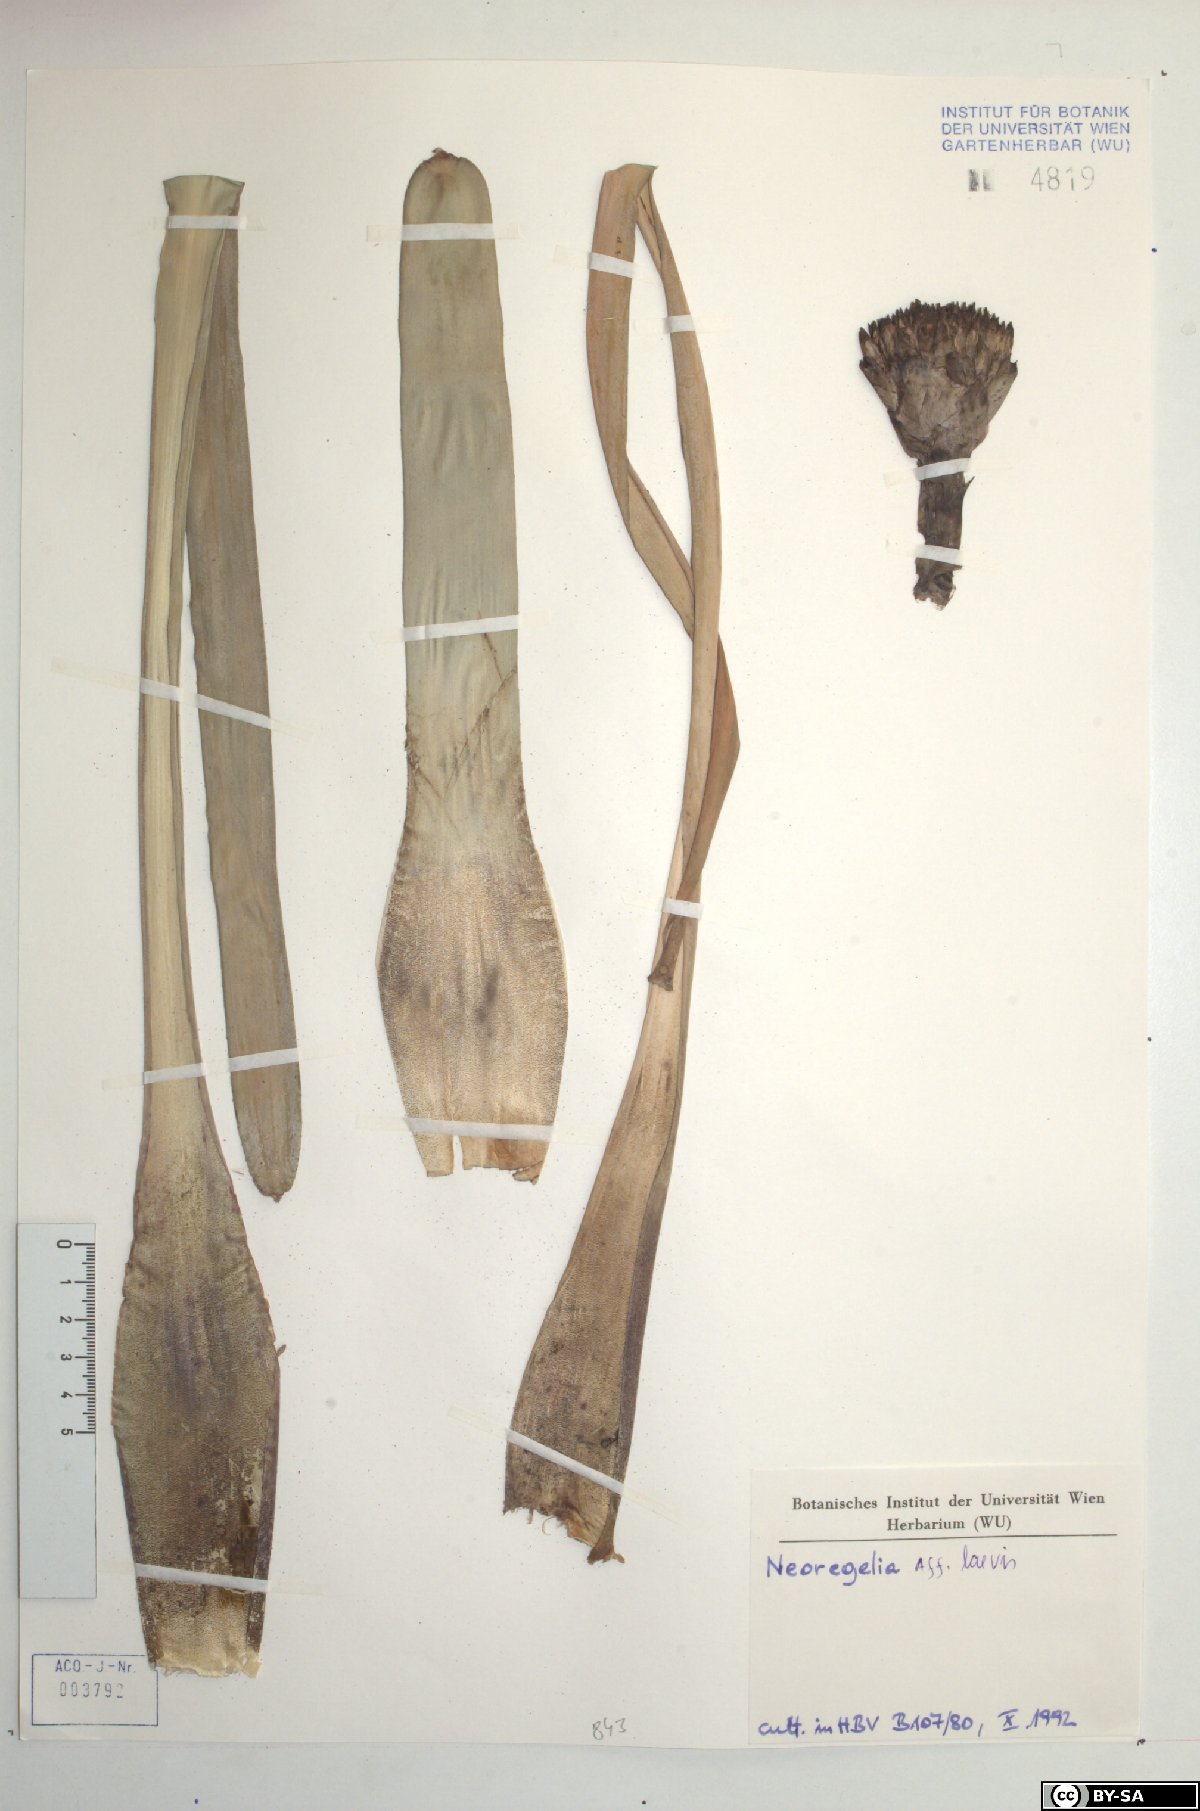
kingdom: Plantae
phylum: Tracheophyta
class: Liliopsida
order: Poales
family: Bromeliaceae
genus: Neoregelia
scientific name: Neoregelia laevis
